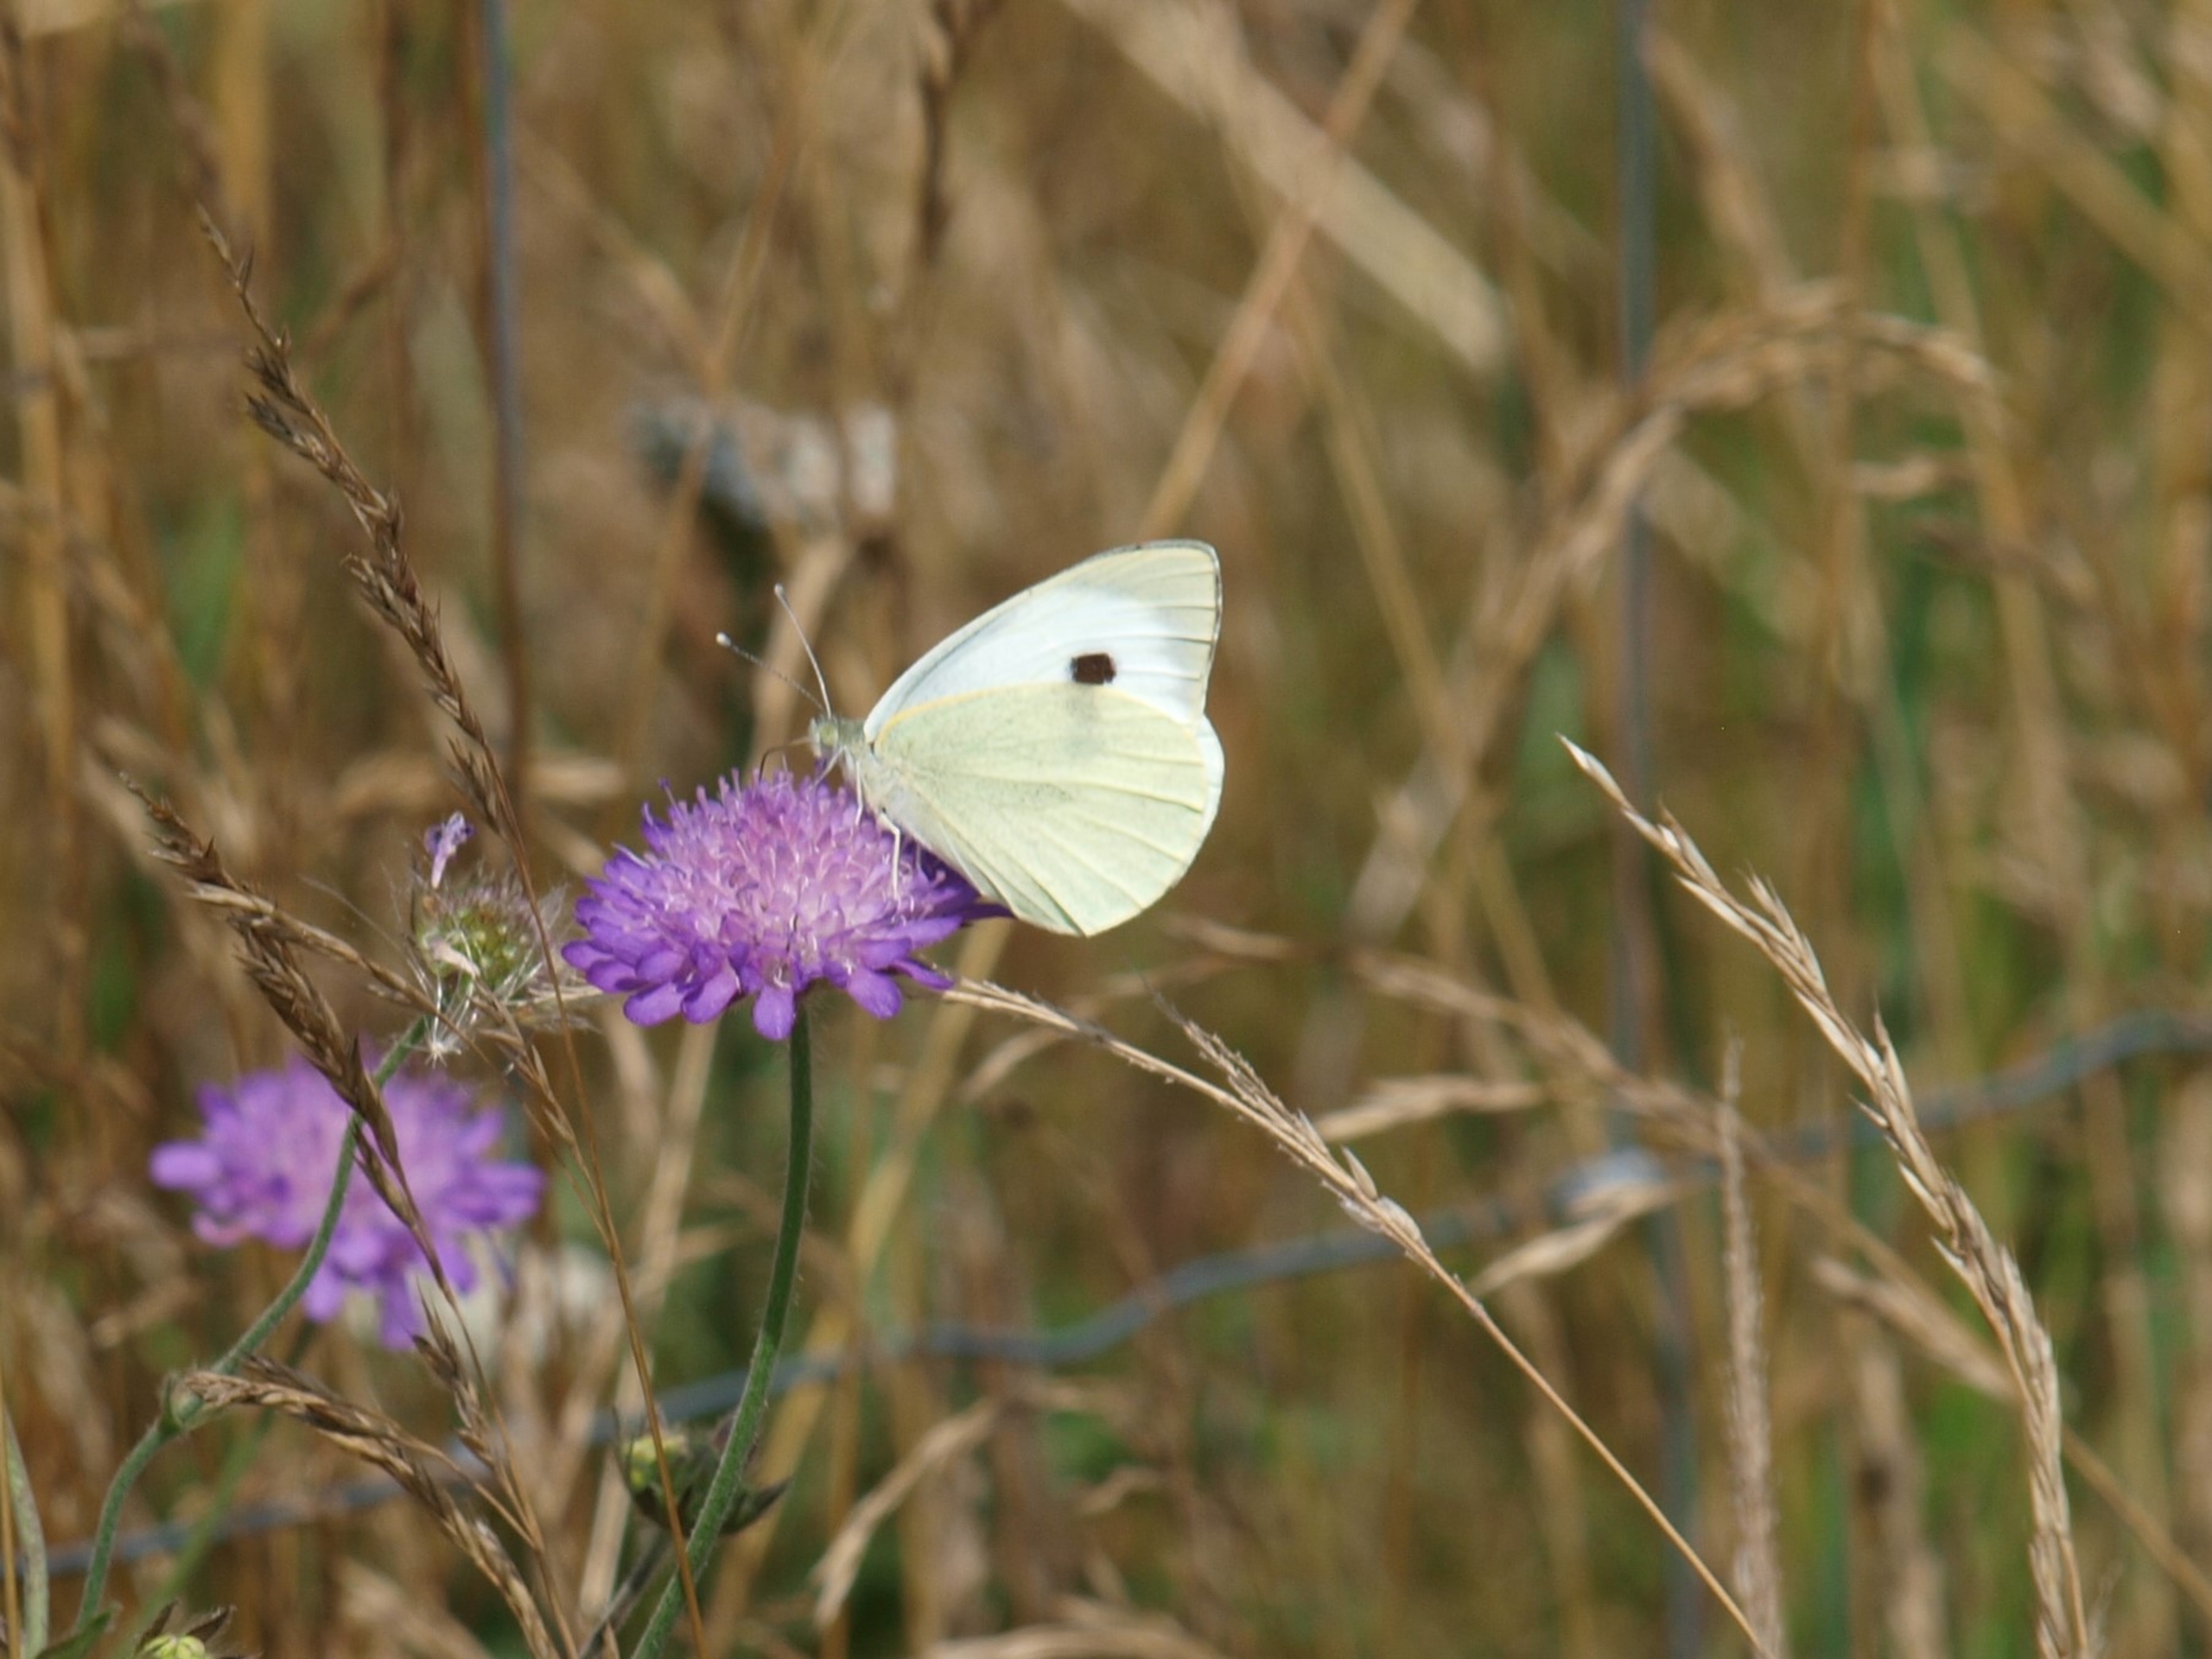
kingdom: Animalia
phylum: Arthropoda
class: Insecta
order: Lepidoptera
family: Pieridae
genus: Pieris
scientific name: Pieris brassicae
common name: Stor kålsommerfugl
